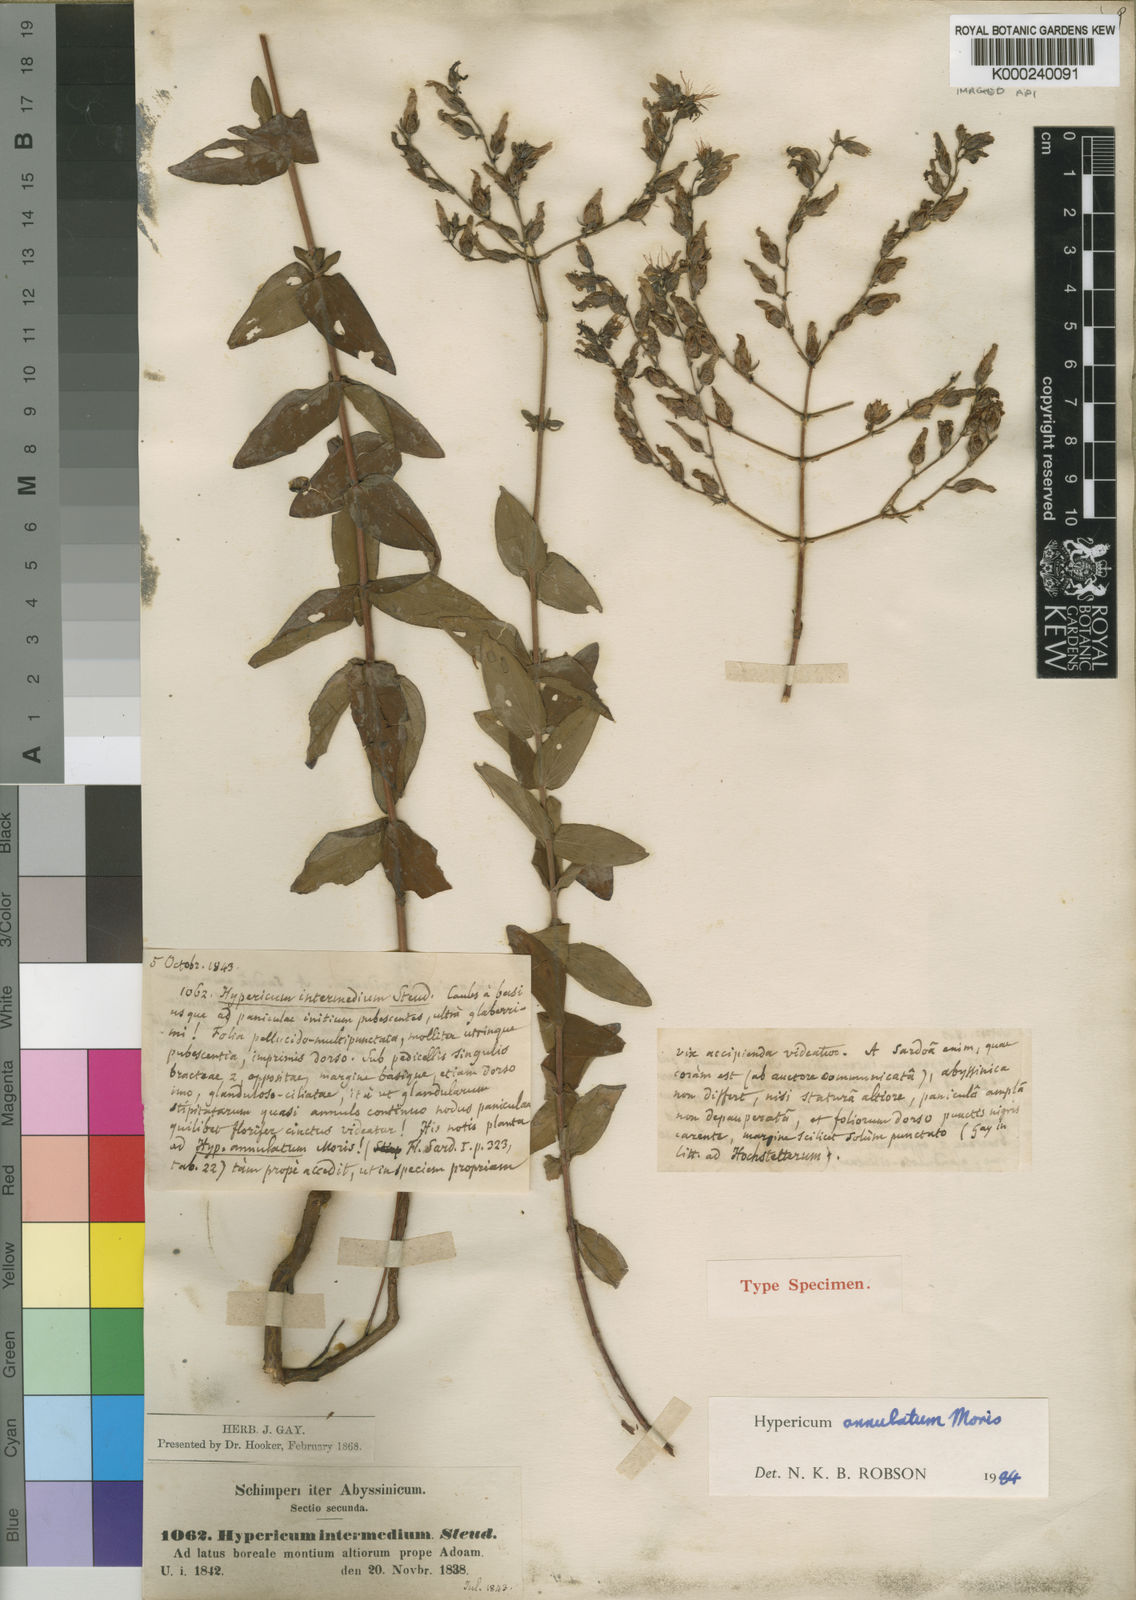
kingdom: Plantae
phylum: Tracheophyta
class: Magnoliopsida
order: Malpighiales
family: Hypericaceae
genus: Hypericum
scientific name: Hypericum somaliense
